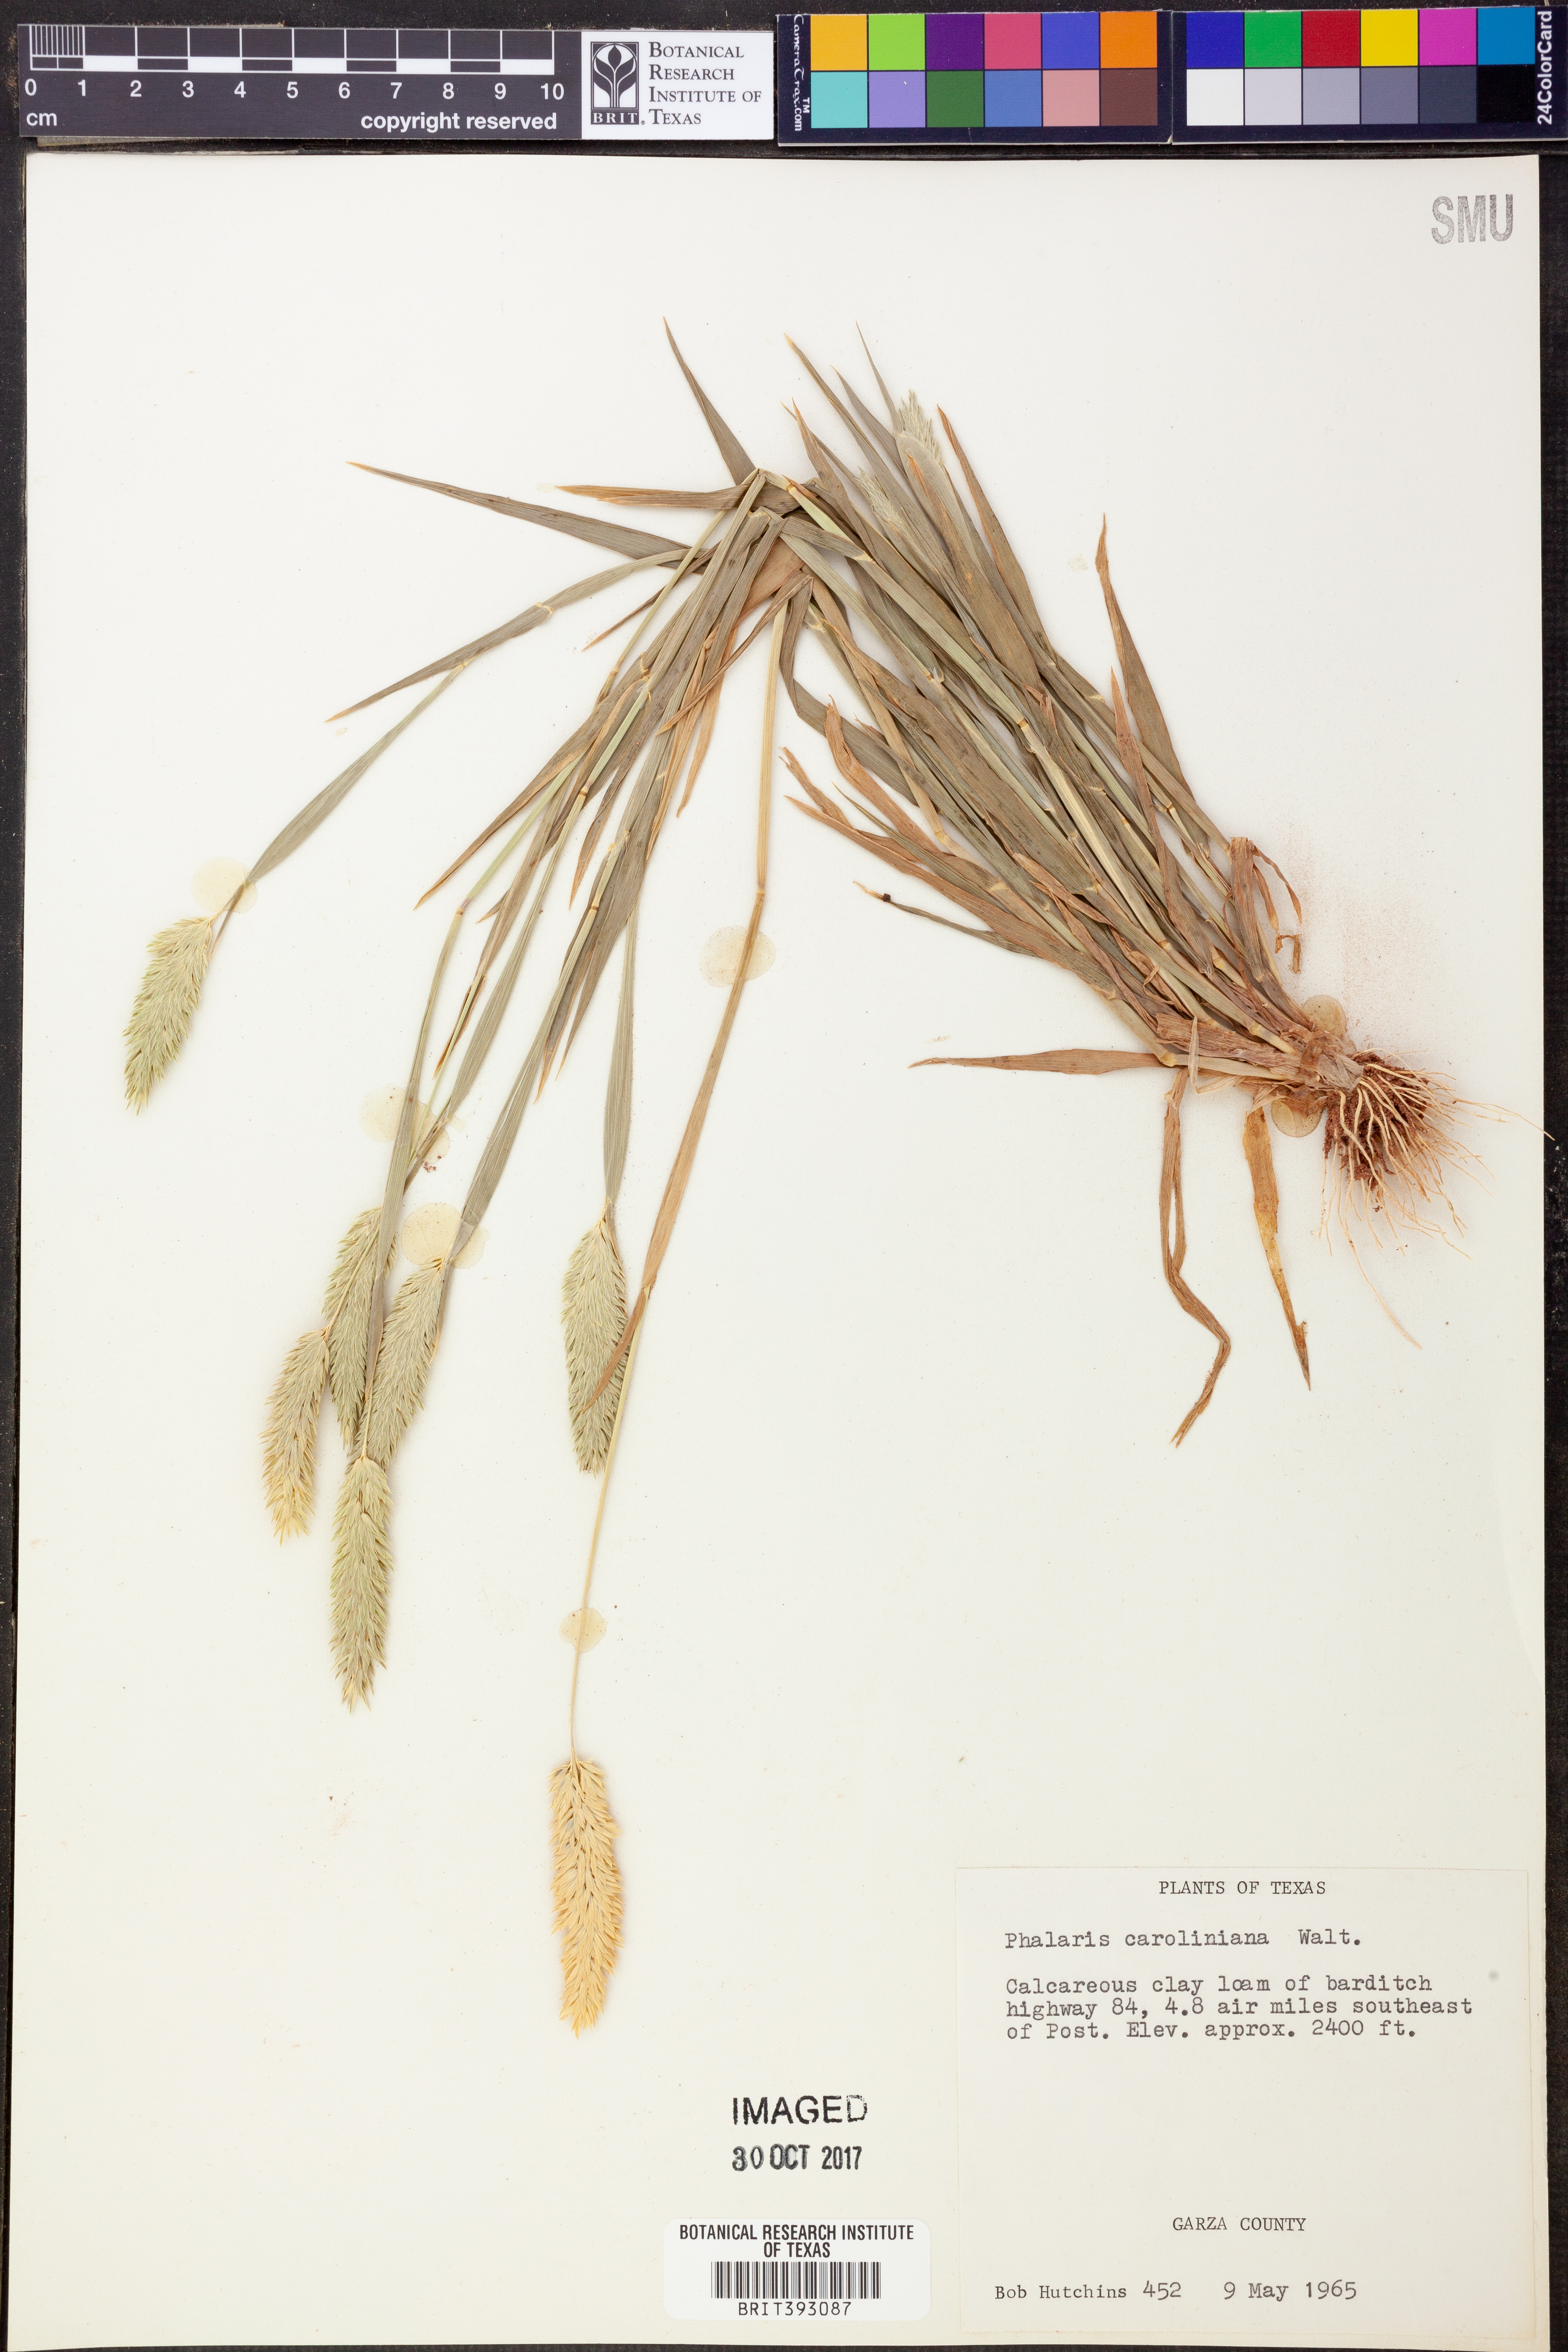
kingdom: Plantae
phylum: Tracheophyta
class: Liliopsida
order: Poales
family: Poaceae
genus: Phalaris
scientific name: Phalaris caroliniana
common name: May grass
